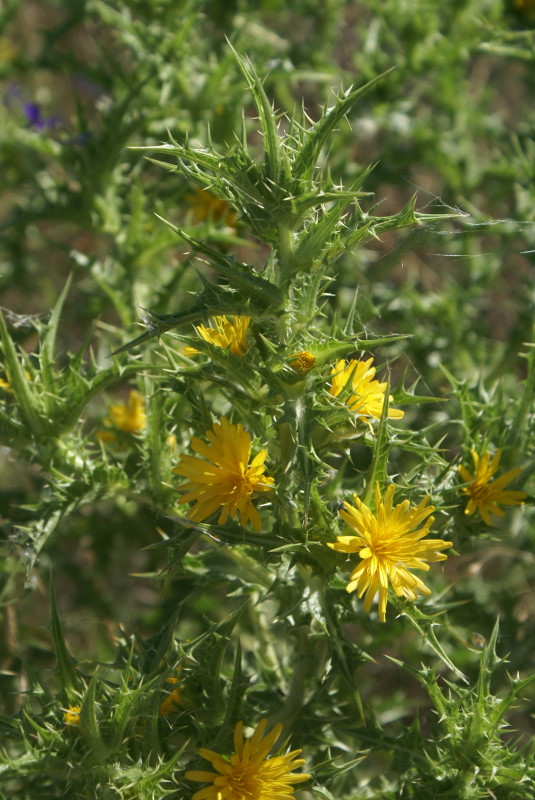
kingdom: Plantae
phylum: Tracheophyta
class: Magnoliopsida
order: Asterales
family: Asteraceae
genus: Carthamus
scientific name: Carthamus lanatus
